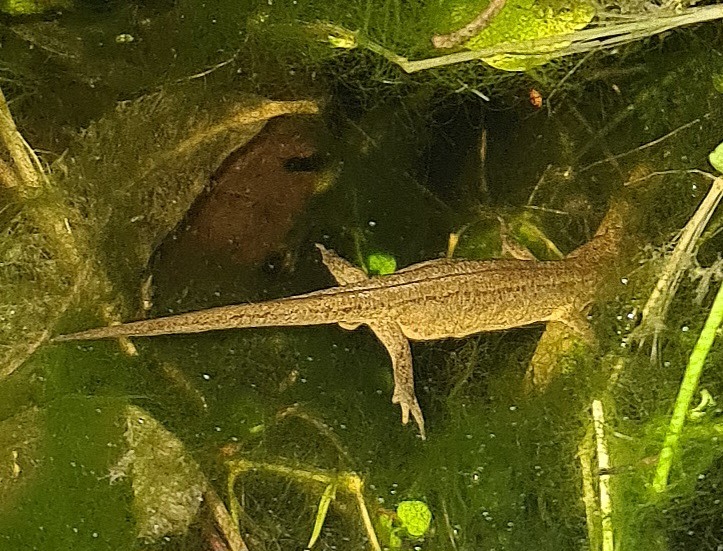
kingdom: Animalia
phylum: Chordata
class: Amphibia
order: Caudata
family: Salamandridae
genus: Lissotriton
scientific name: Lissotriton vulgaris
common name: Lille vandsalamander
